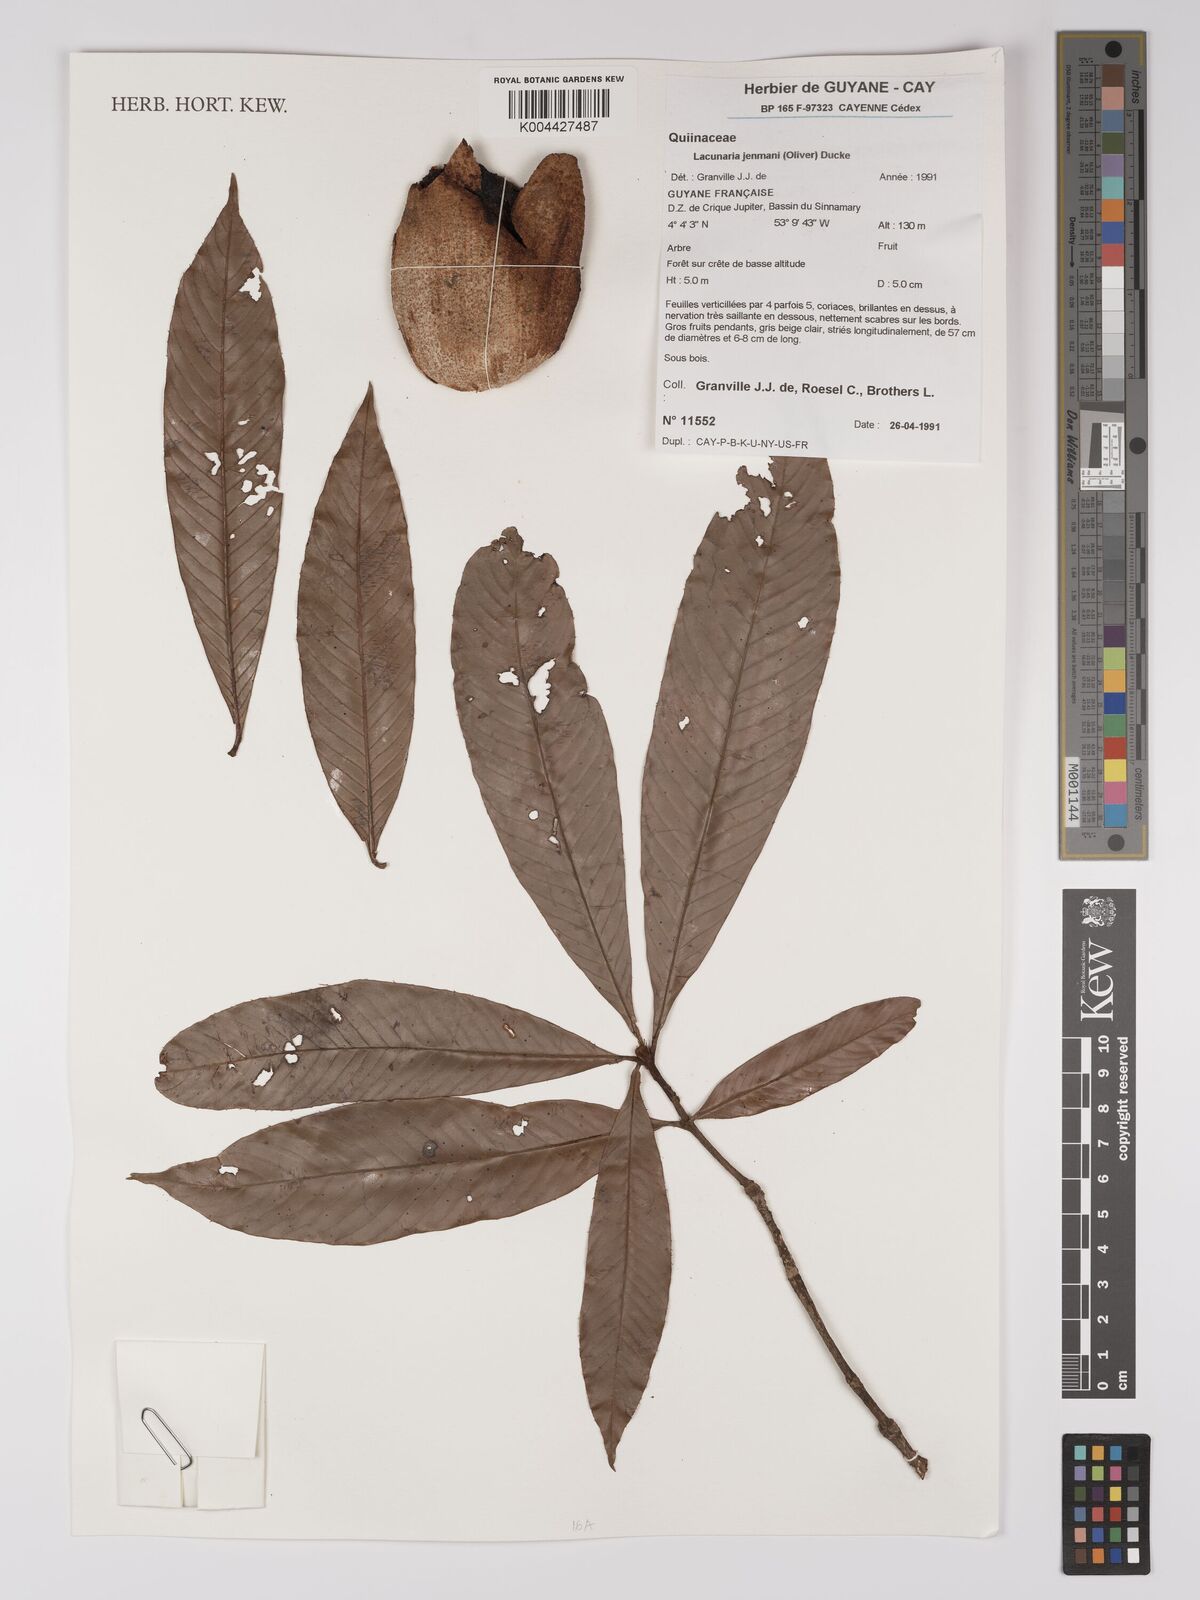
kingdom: Plantae
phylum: Tracheophyta
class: Magnoliopsida
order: Malpighiales
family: Quiinaceae
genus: Lacunaria
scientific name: Lacunaria jenmanii
